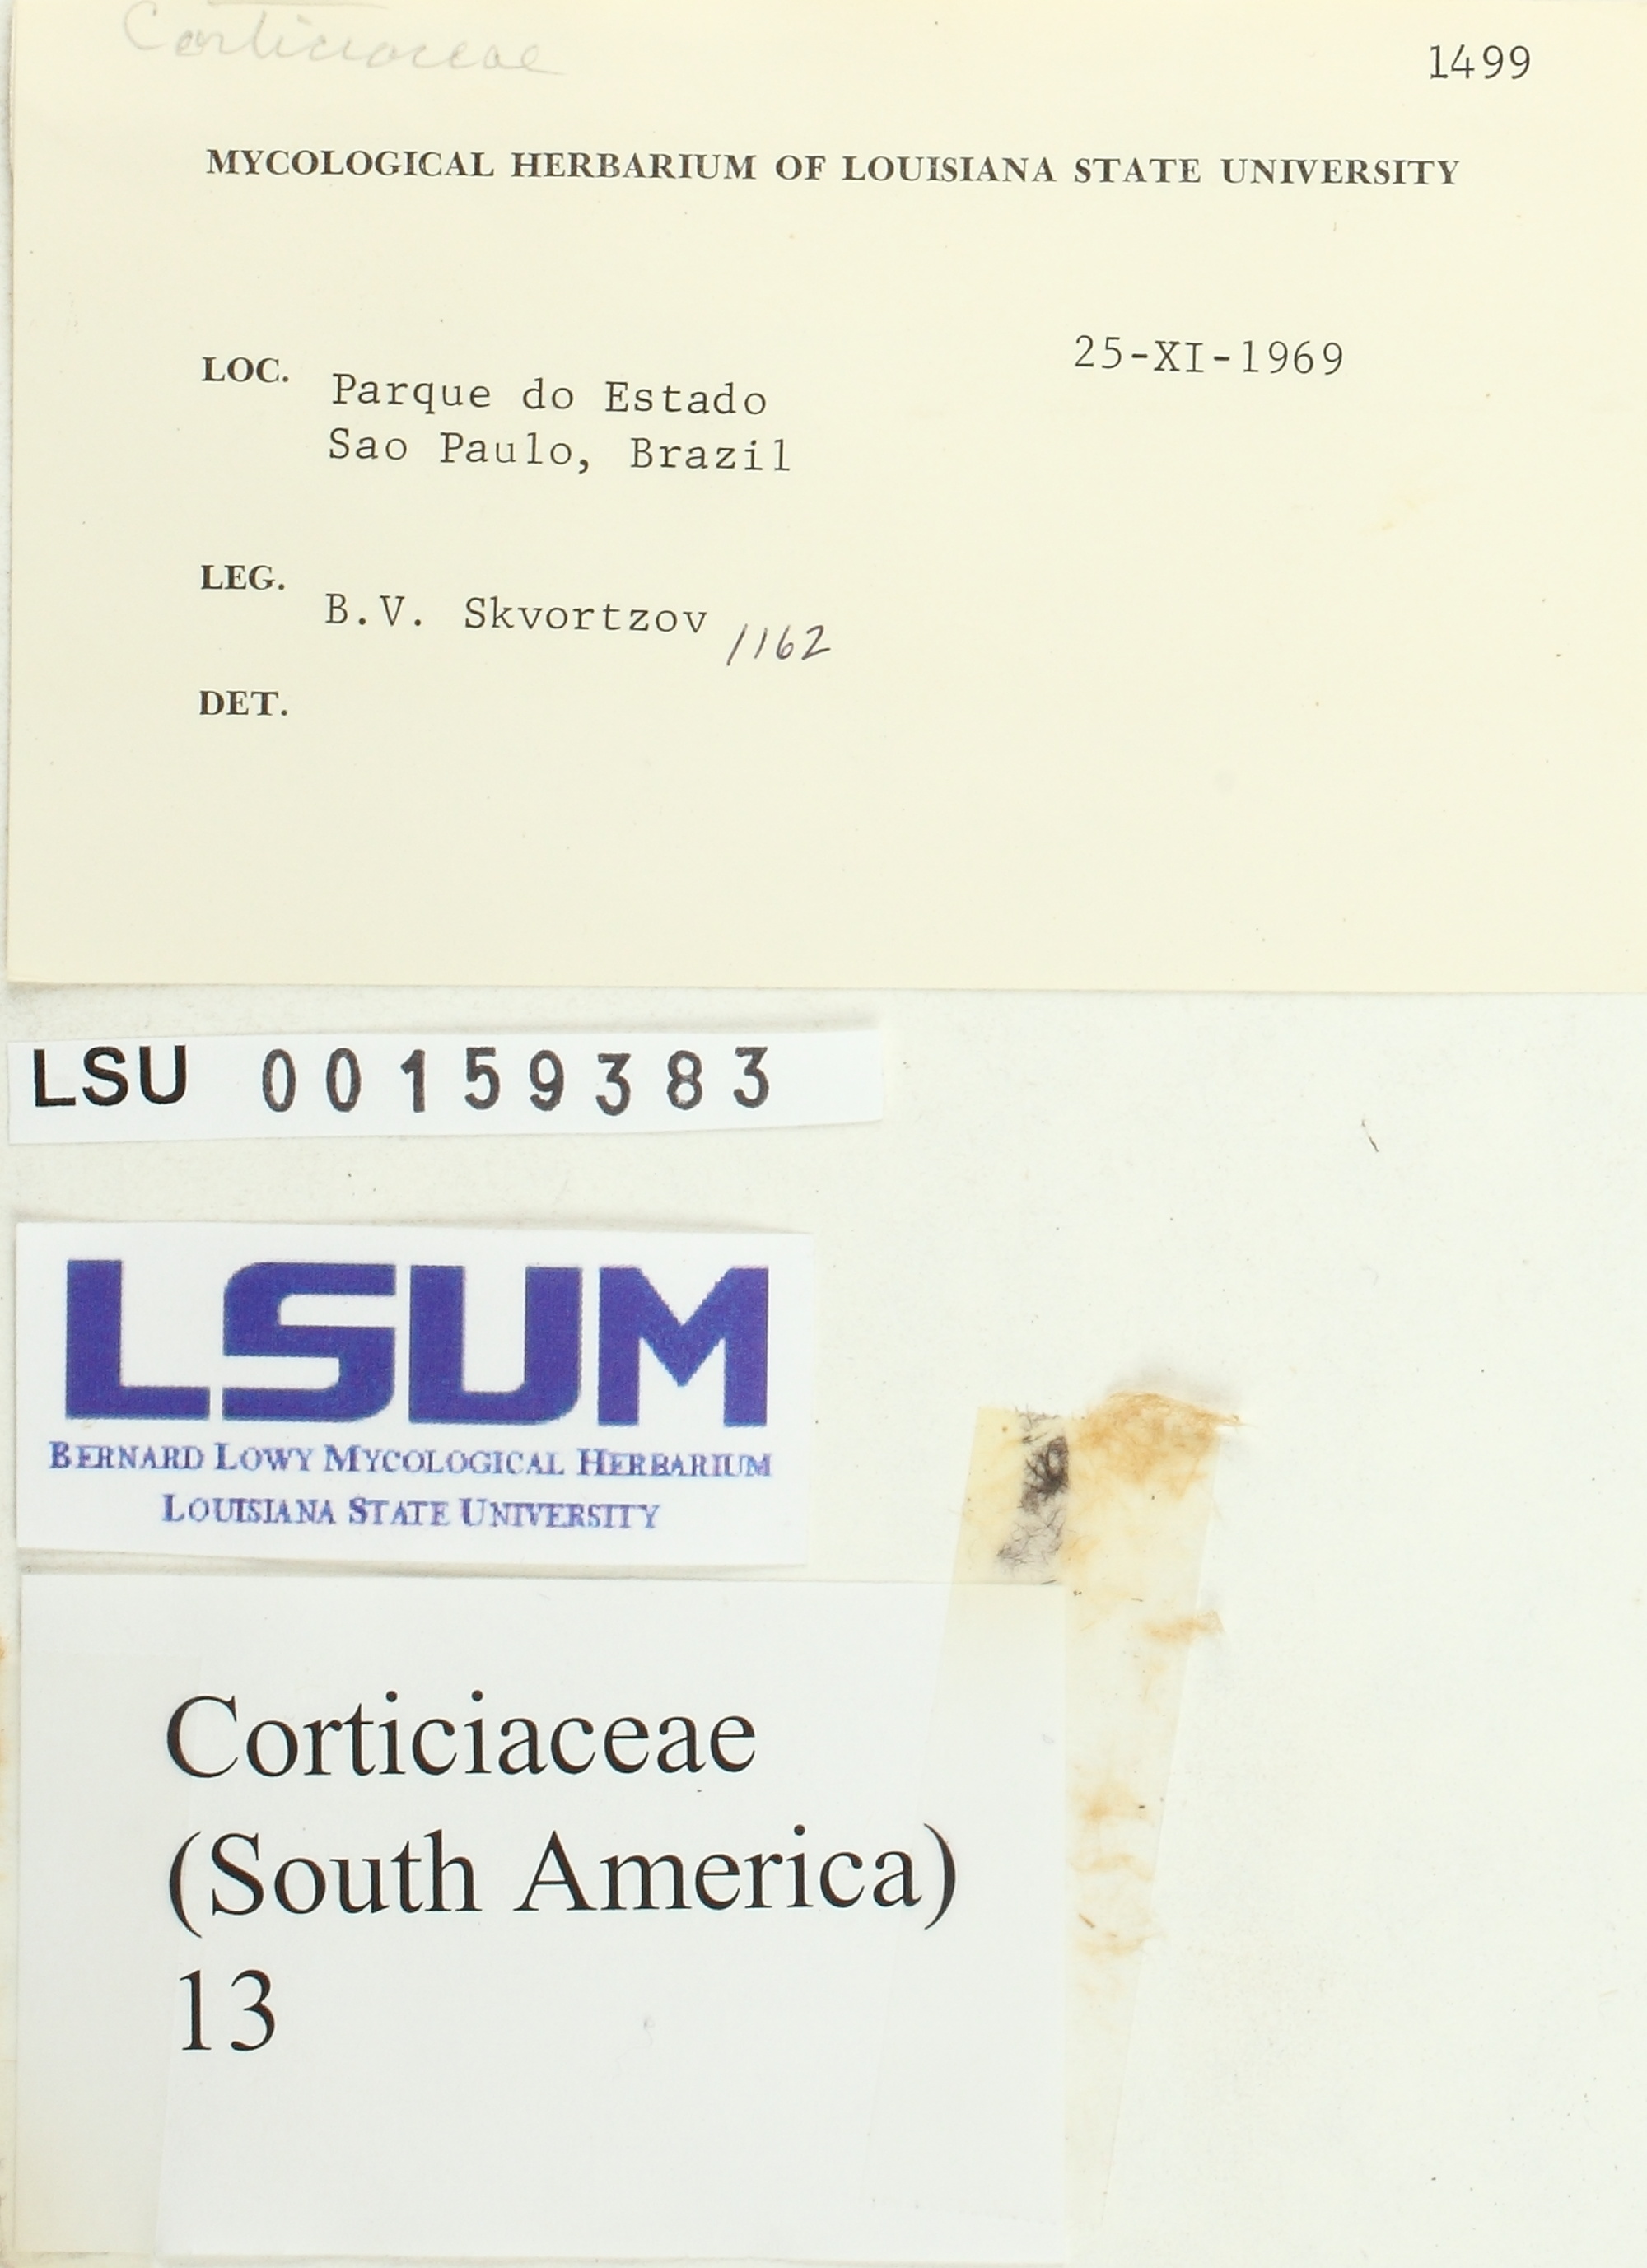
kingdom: Fungi
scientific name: Fungi
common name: Fungi
